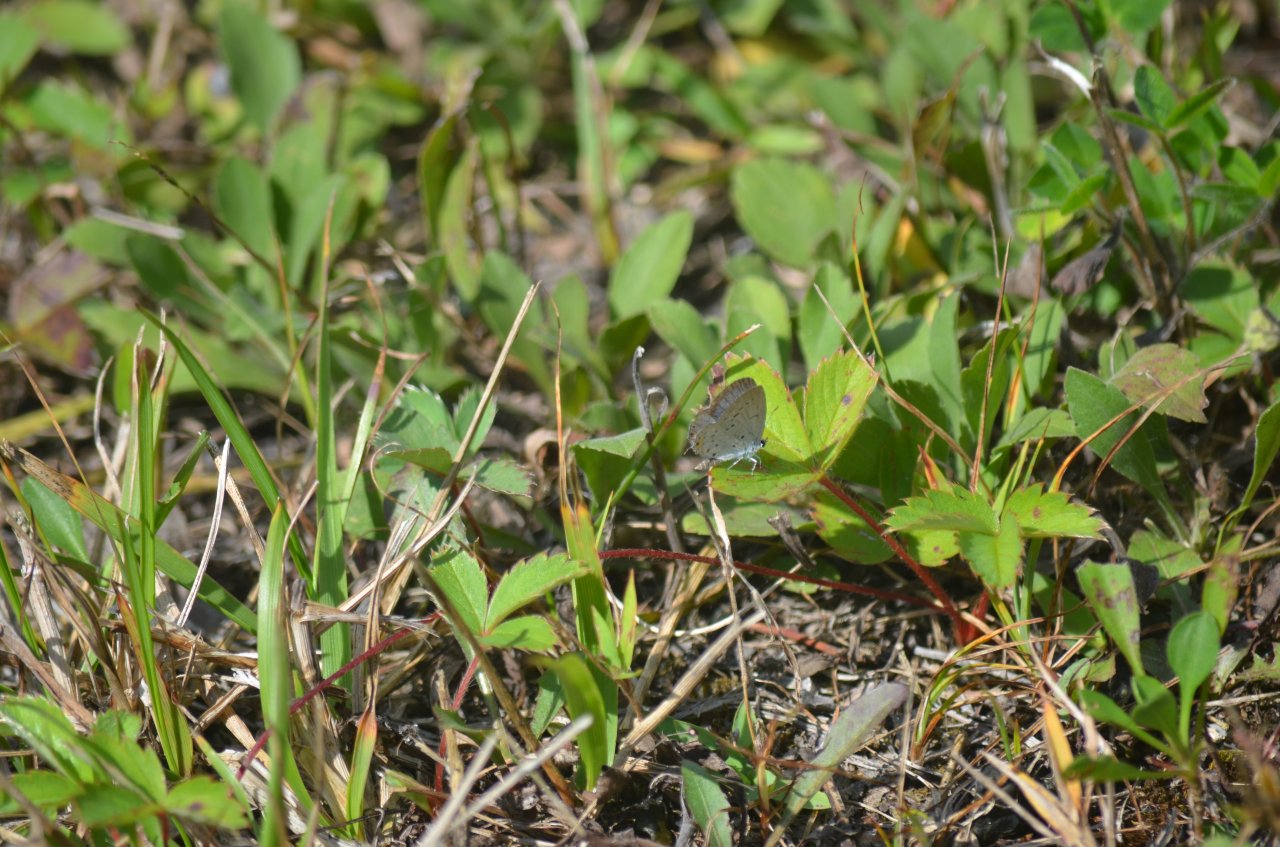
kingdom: Animalia
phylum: Arthropoda
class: Insecta
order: Lepidoptera
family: Lycaenidae
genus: Elkalyce
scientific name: Elkalyce comyntas
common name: Eastern Tailed-Blue
